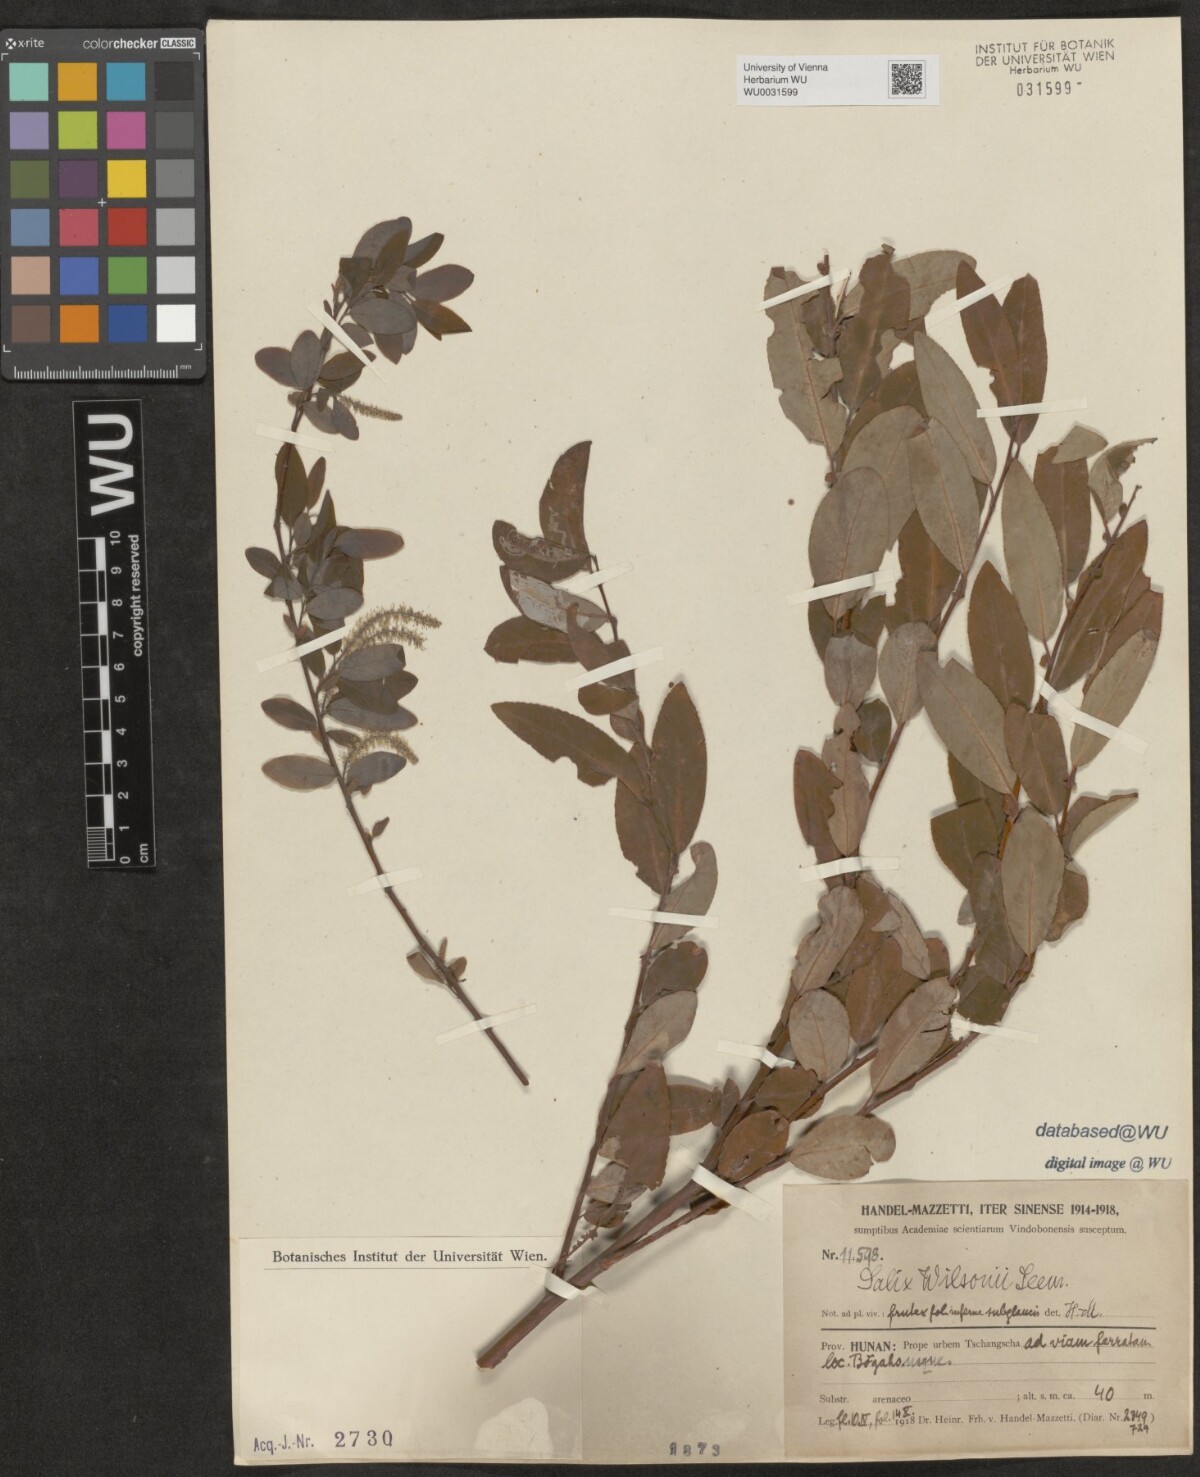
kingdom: Plantae
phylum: Tracheophyta
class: Magnoliopsida
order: Malpighiales
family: Salicaceae
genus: Salix
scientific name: Salix wilsonii
